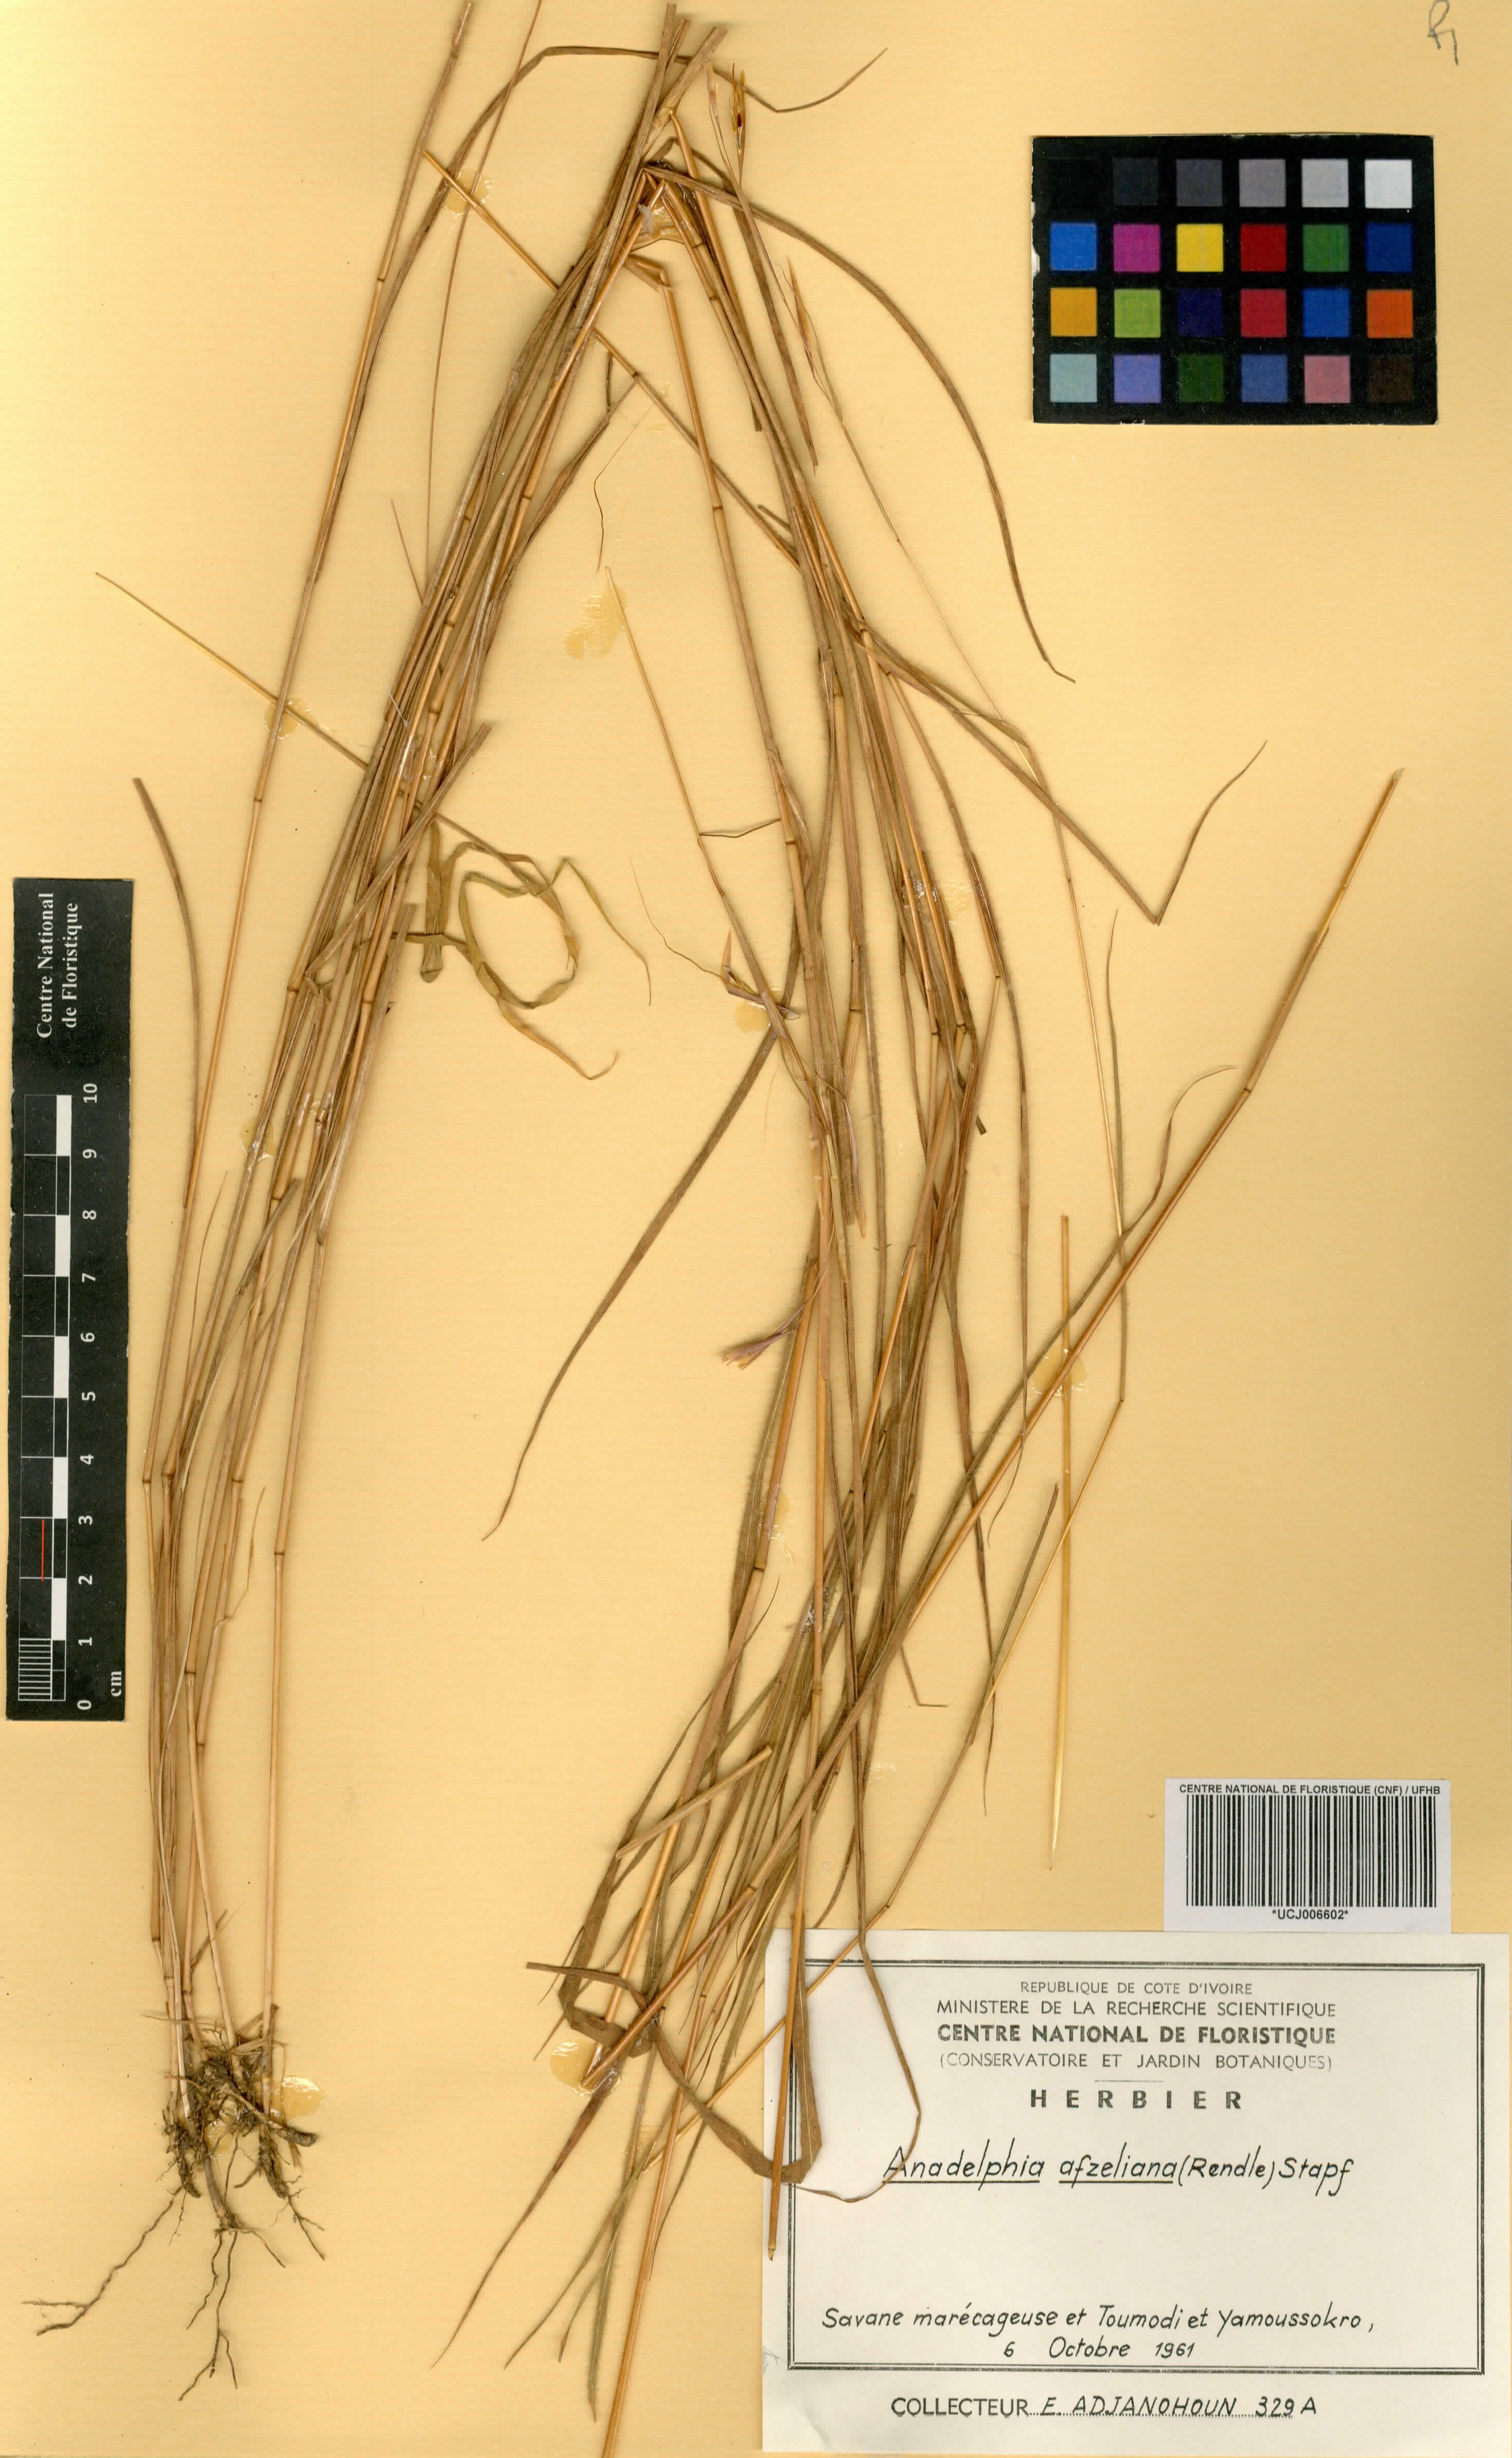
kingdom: Plantae
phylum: Tracheophyta
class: Liliopsida
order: Poales
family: Poaceae
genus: Anadelphia
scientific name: Anadelphia afzeliana
